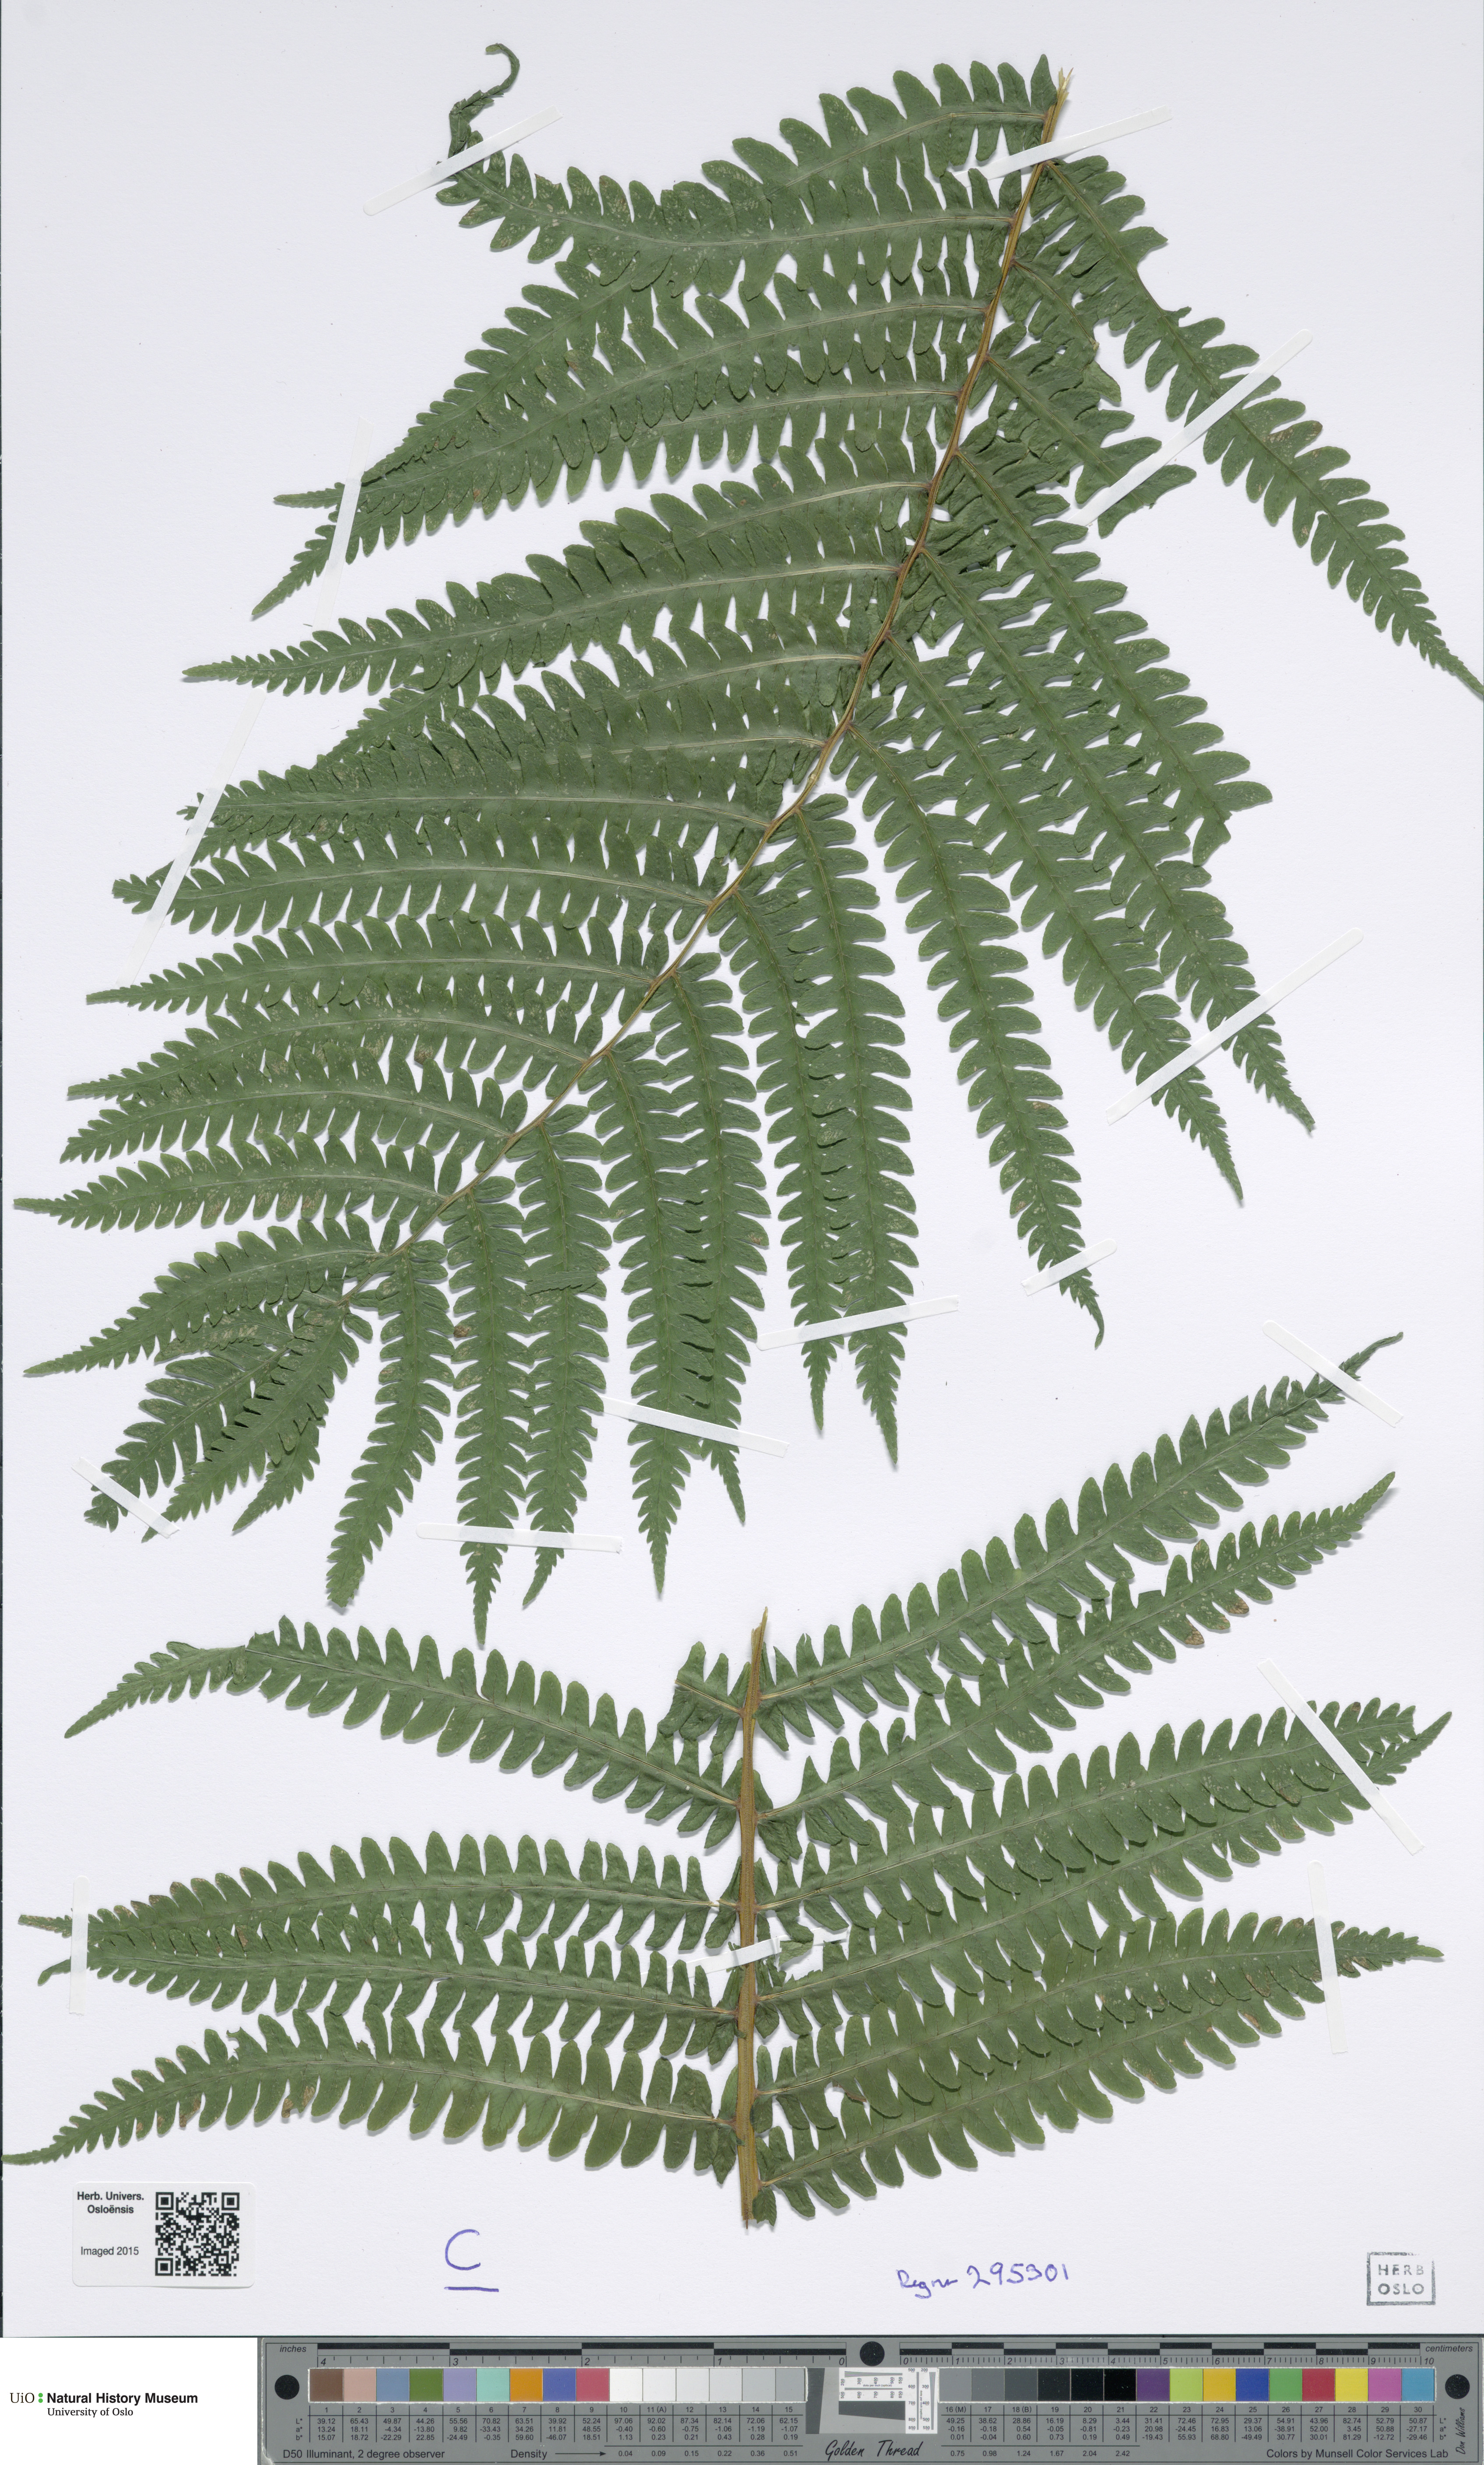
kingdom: Plantae
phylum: Tracheophyta
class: Polypodiopsida
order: Polypodiales
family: Onocleaceae
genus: Matteuccia
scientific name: Matteuccia struthiopteris
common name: Ostrich fern
